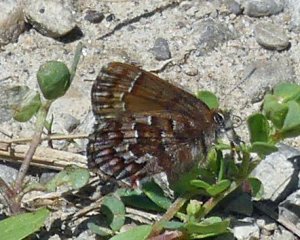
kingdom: Animalia
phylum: Arthropoda
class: Insecta
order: Lepidoptera
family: Lycaenidae
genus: Incisalia
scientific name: Incisalia niphon
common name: Eastern Pine Elfin
